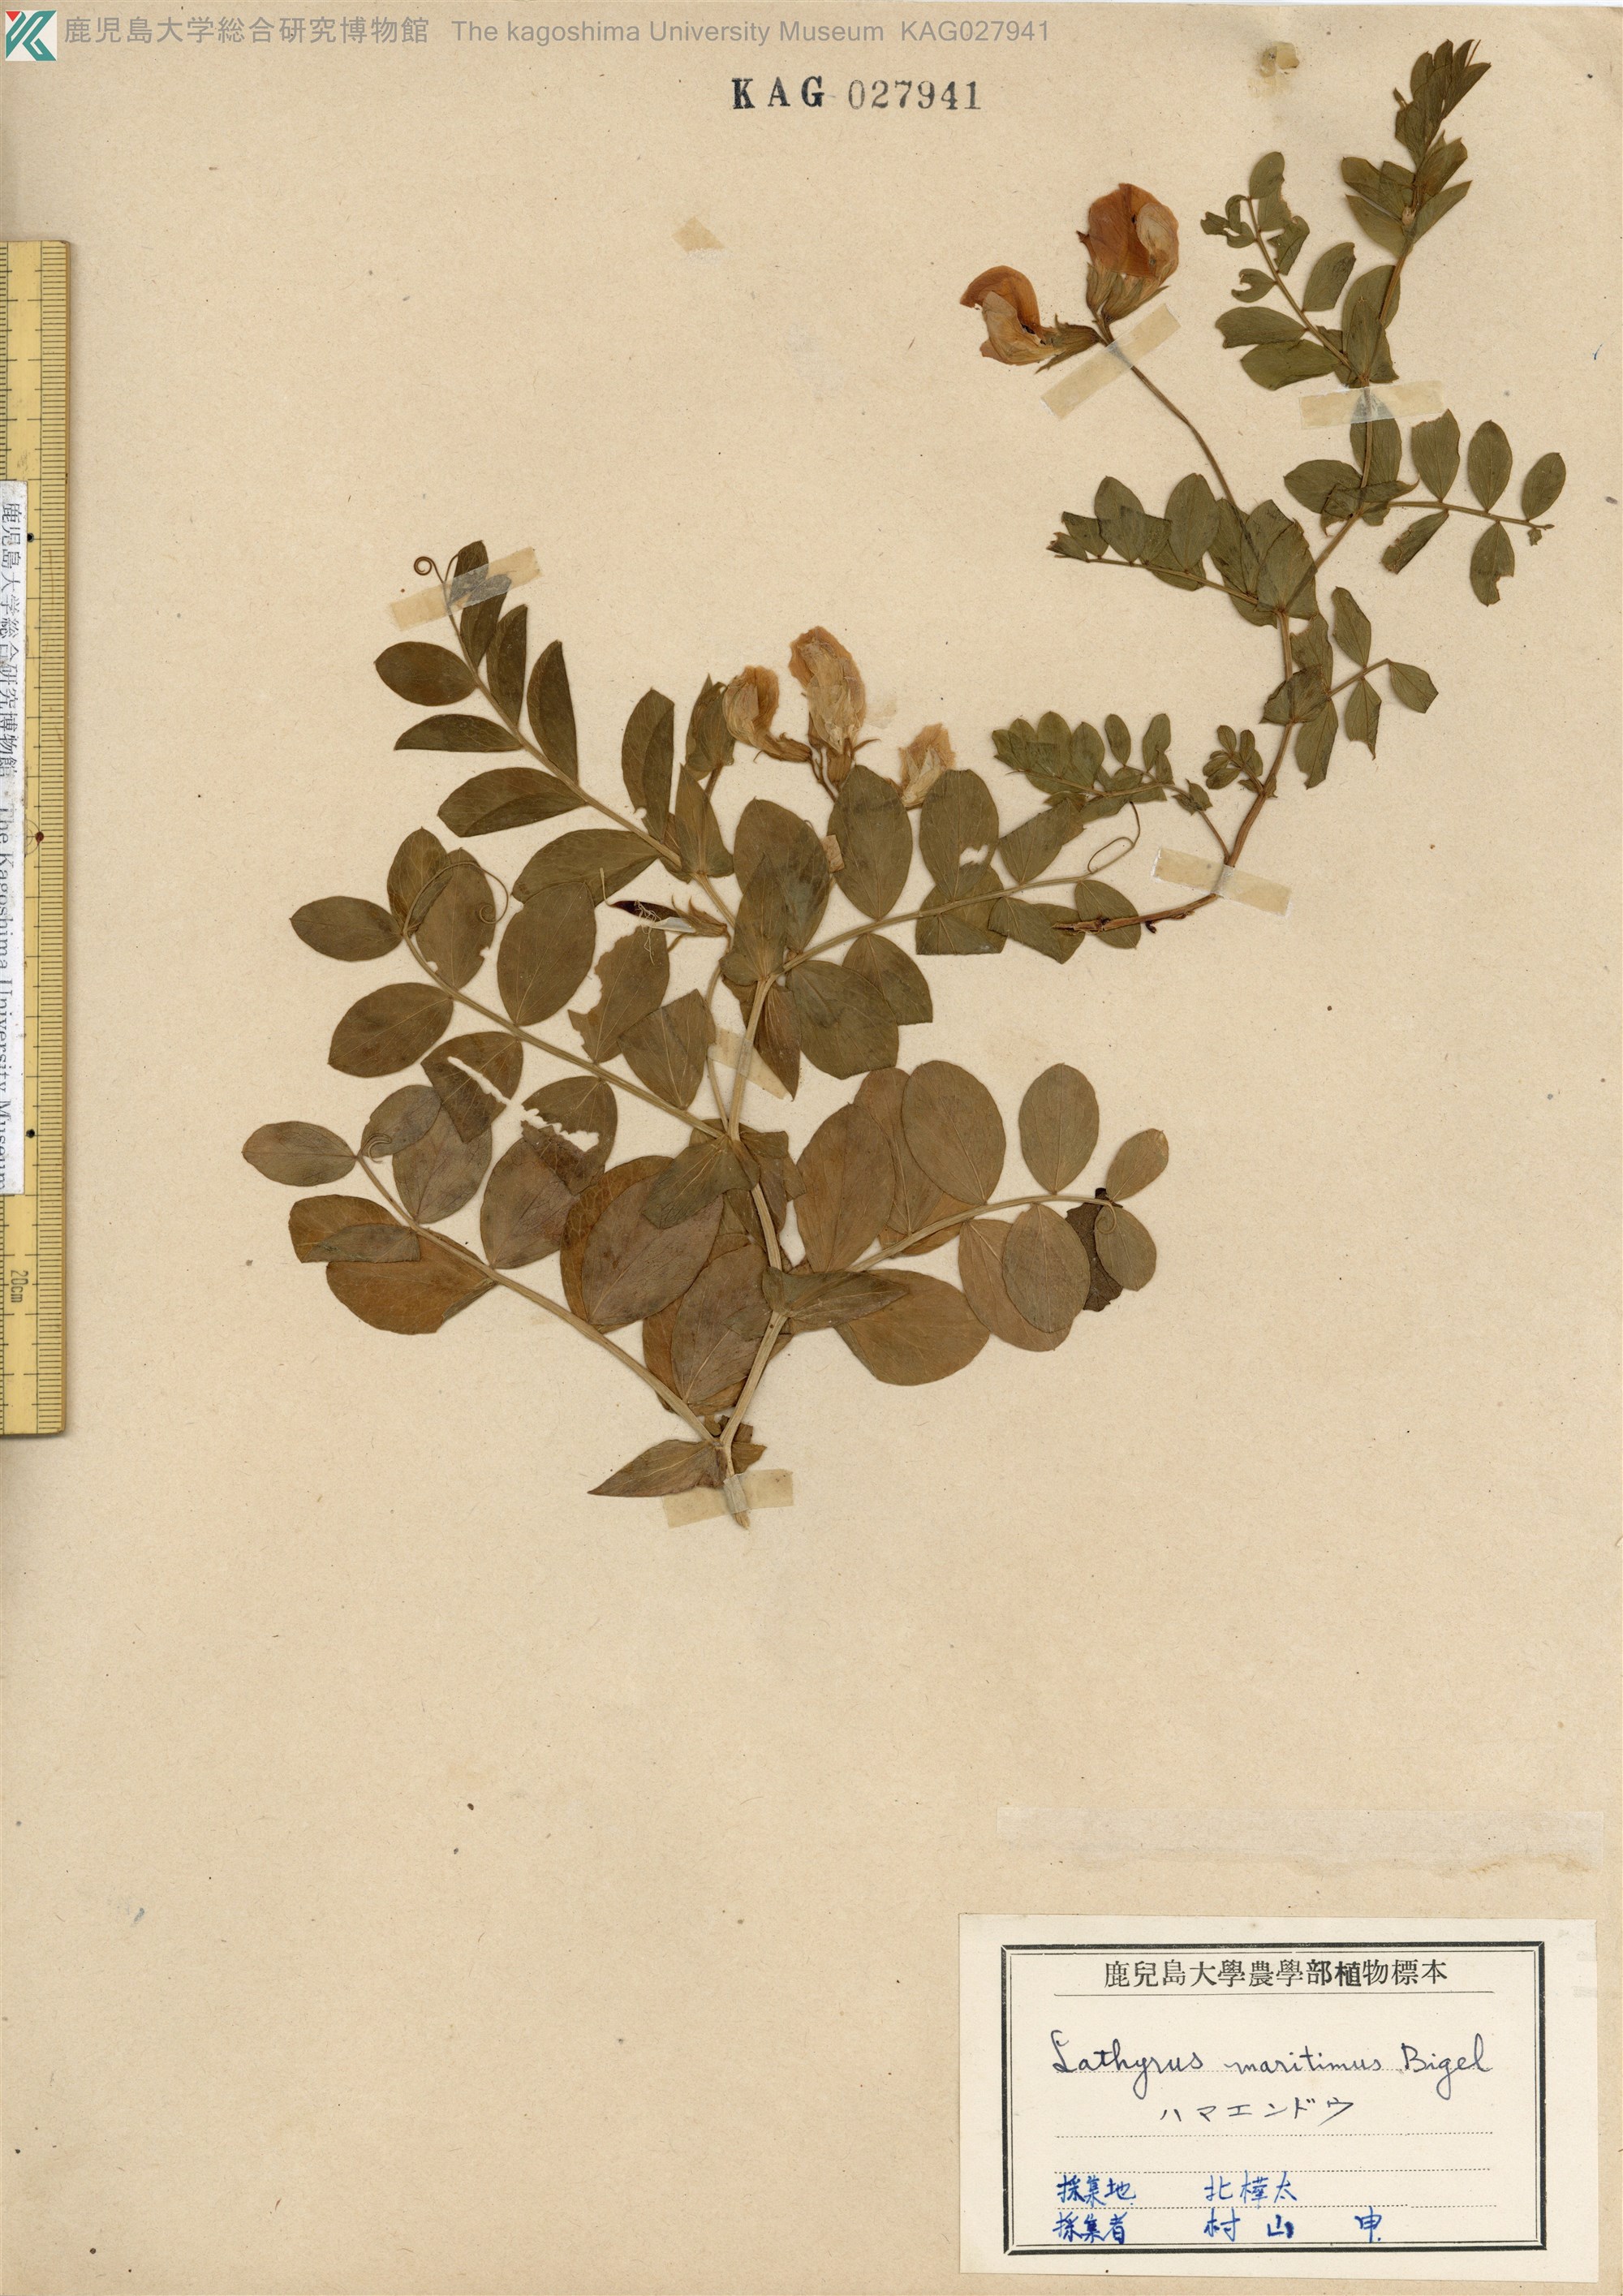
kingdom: Plantae
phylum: Tracheophyta
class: Magnoliopsida
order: Fabales
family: Fabaceae
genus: Lathyrus
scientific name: Lathyrus japonicus
